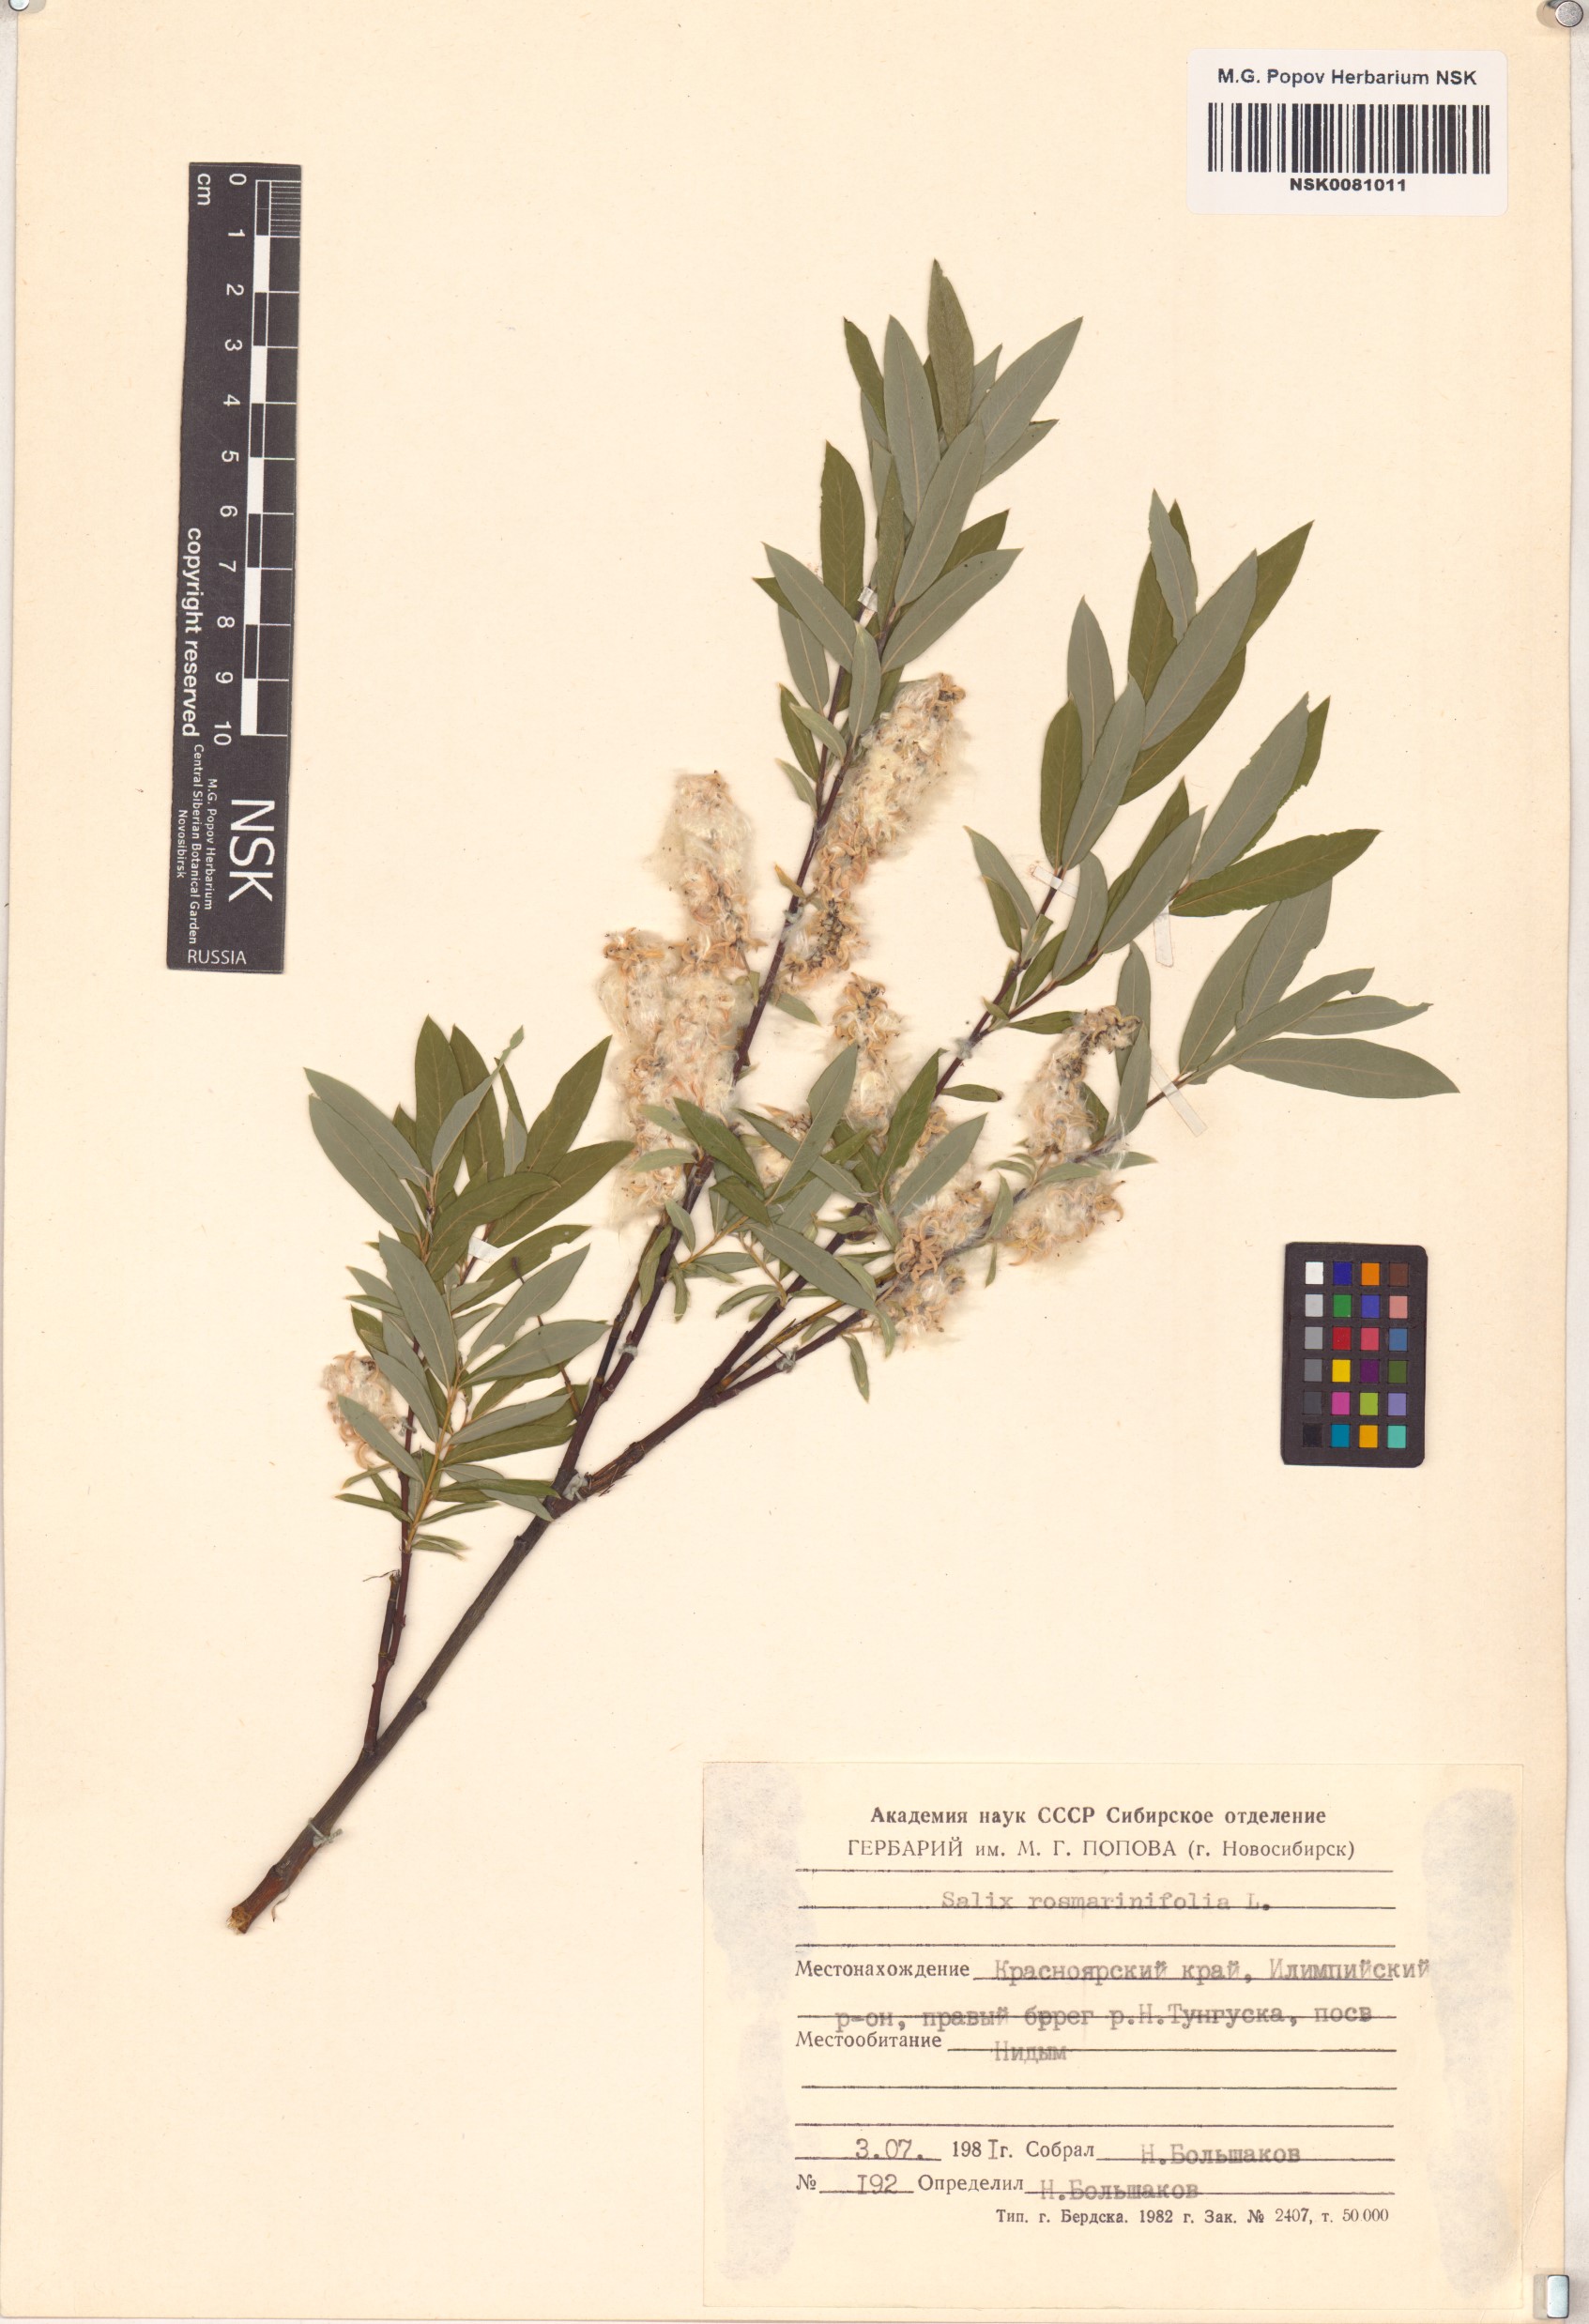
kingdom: Plantae
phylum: Tracheophyta
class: Magnoliopsida
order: Malpighiales
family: Salicaceae
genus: Salix
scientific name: Salix rosmarinifolia
